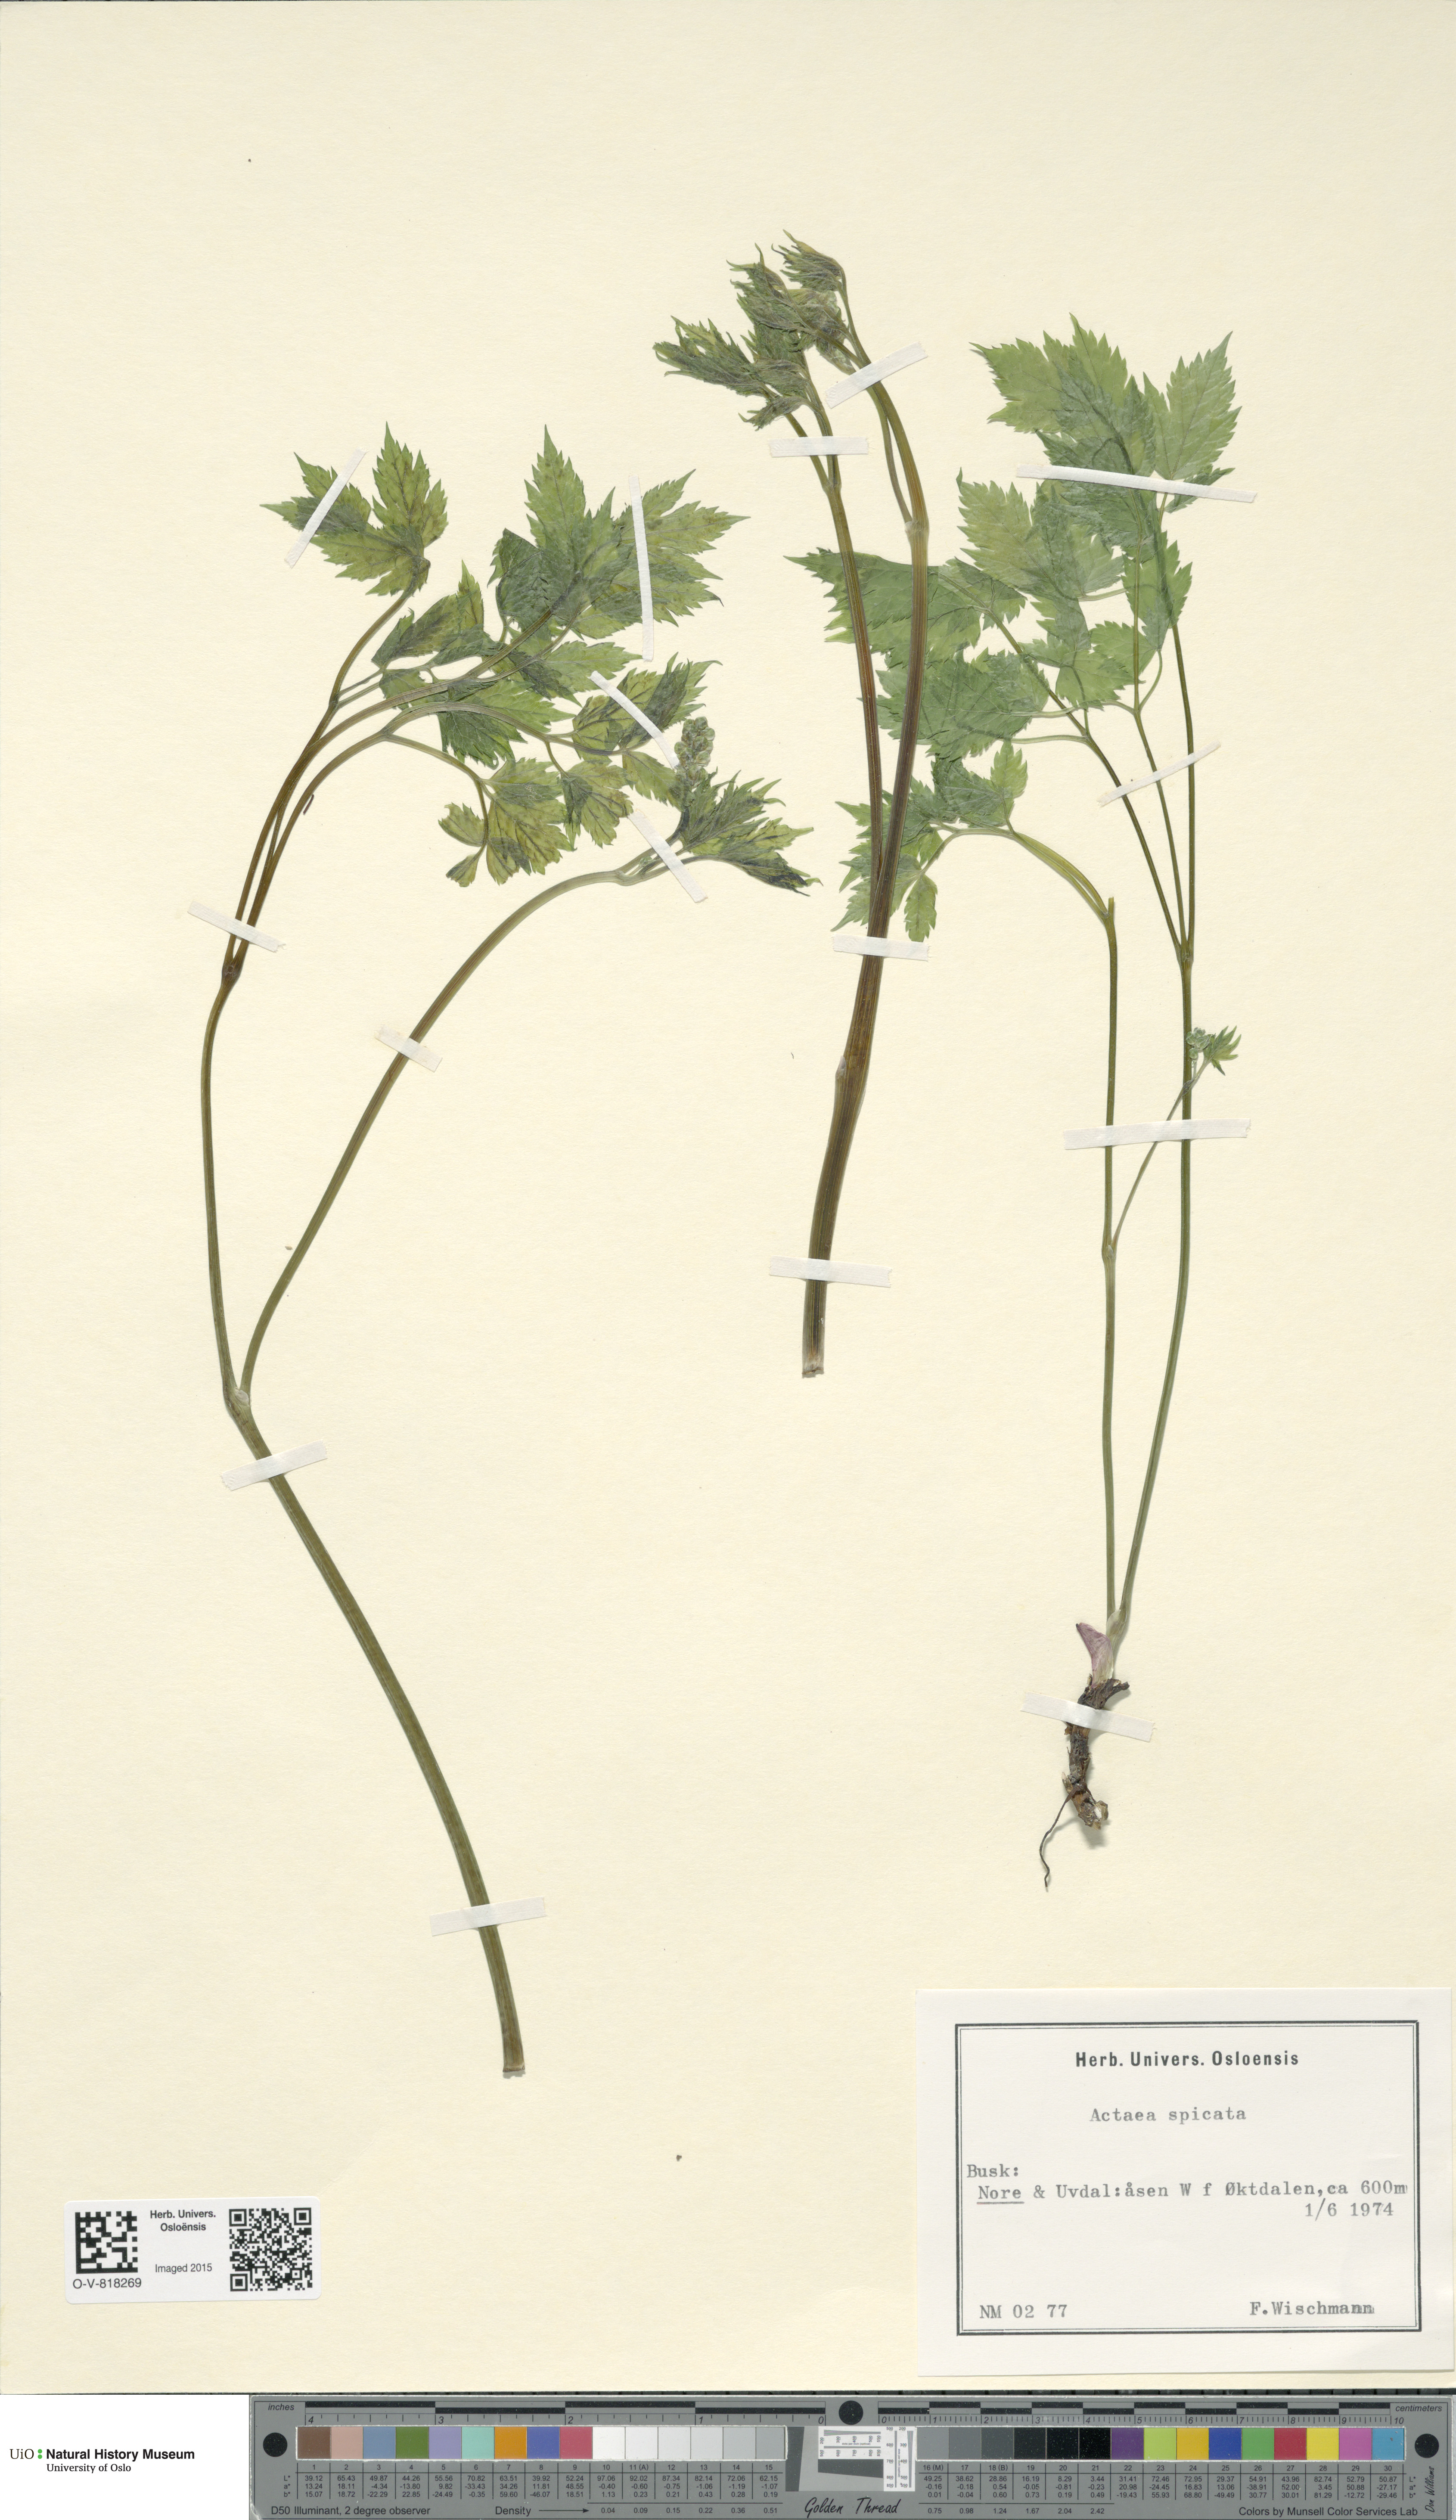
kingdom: Plantae
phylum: Tracheophyta
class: Magnoliopsida
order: Ranunculales
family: Ranunculaceae
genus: Actaea
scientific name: Actaea spicata
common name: Baneberry
